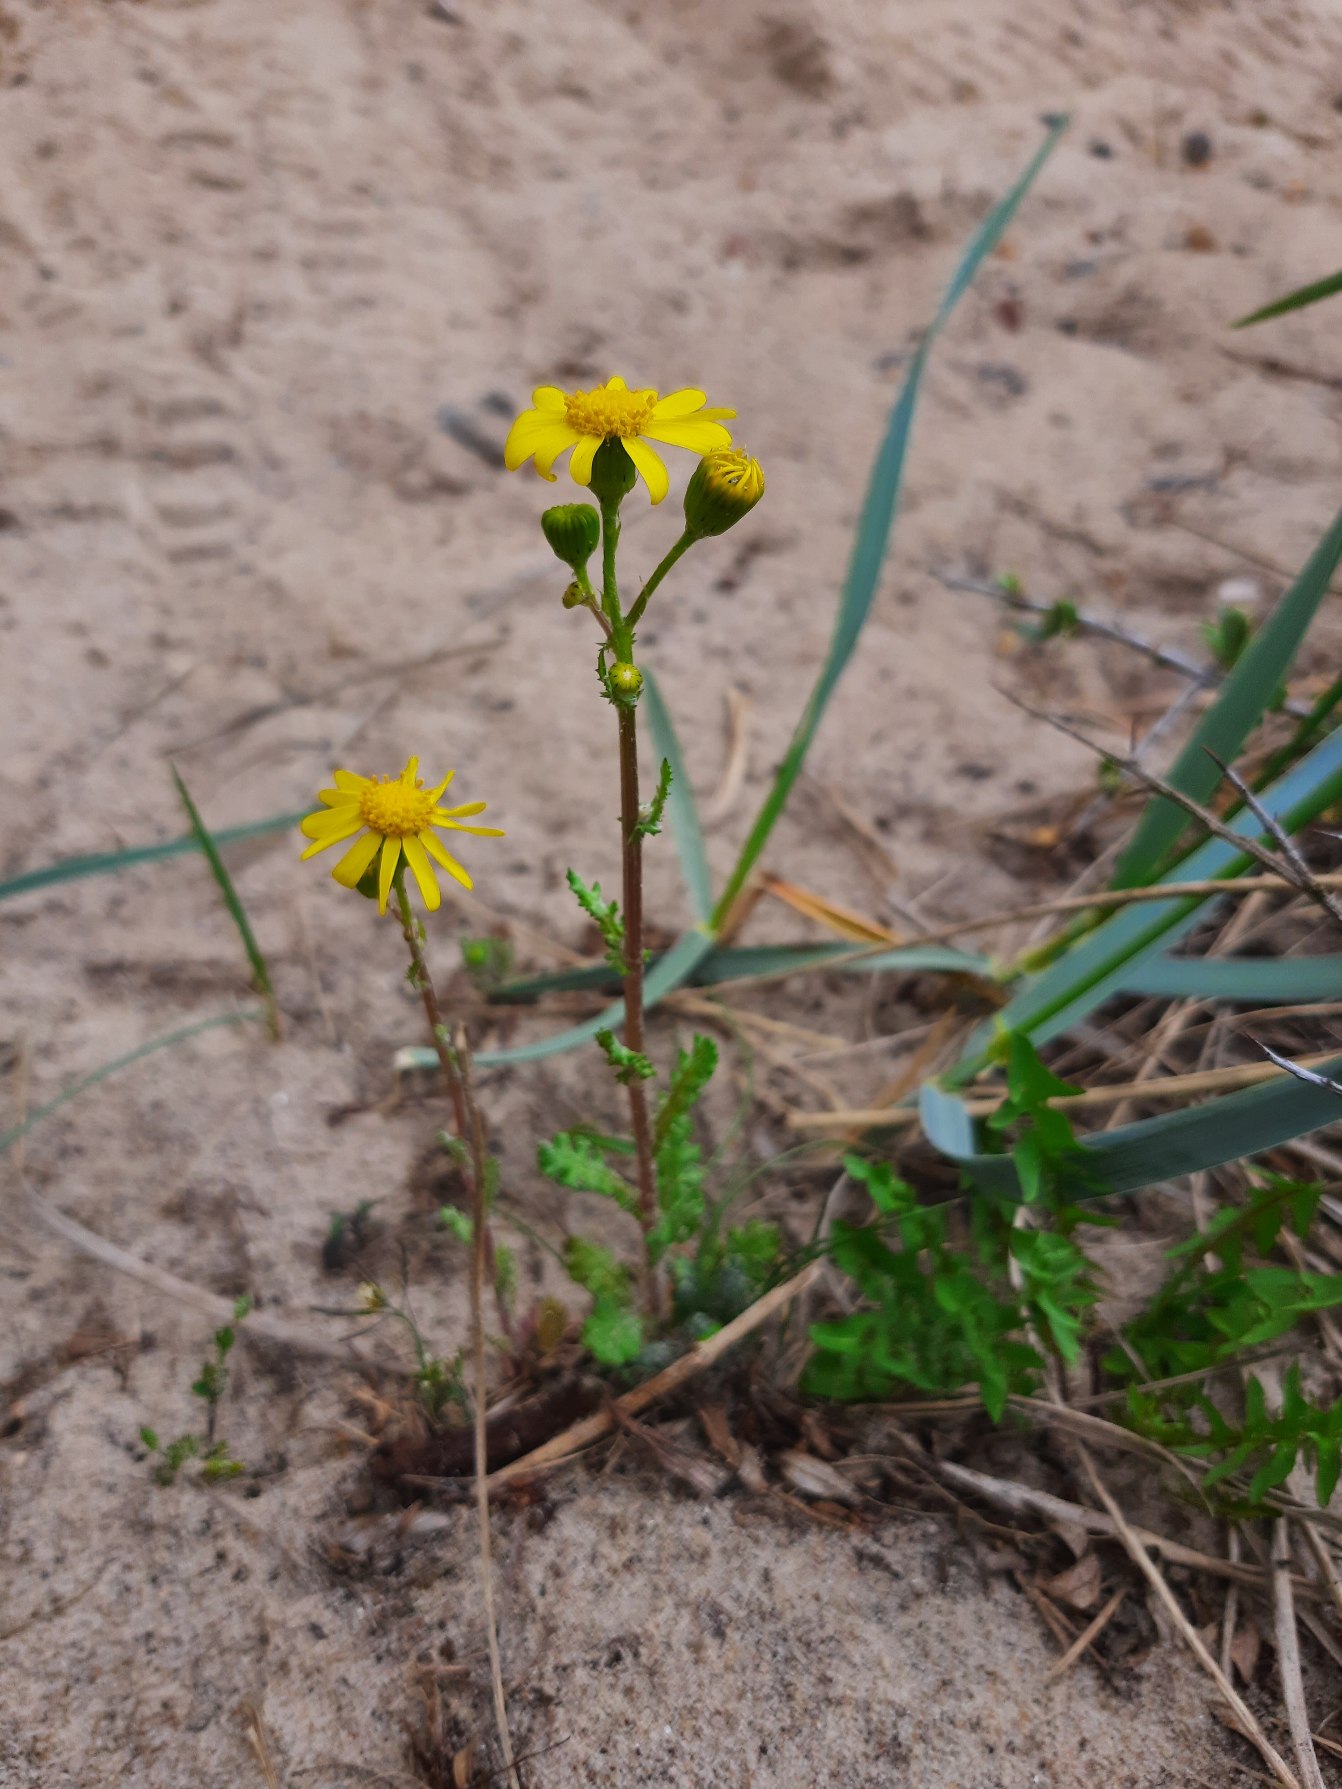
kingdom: Plantae
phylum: Tracheophyta
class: Magnoliopsida
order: Asterales
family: Asteraceae
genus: Senecio
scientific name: Senecio leucanthemifolius
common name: Vår-brandbæger
